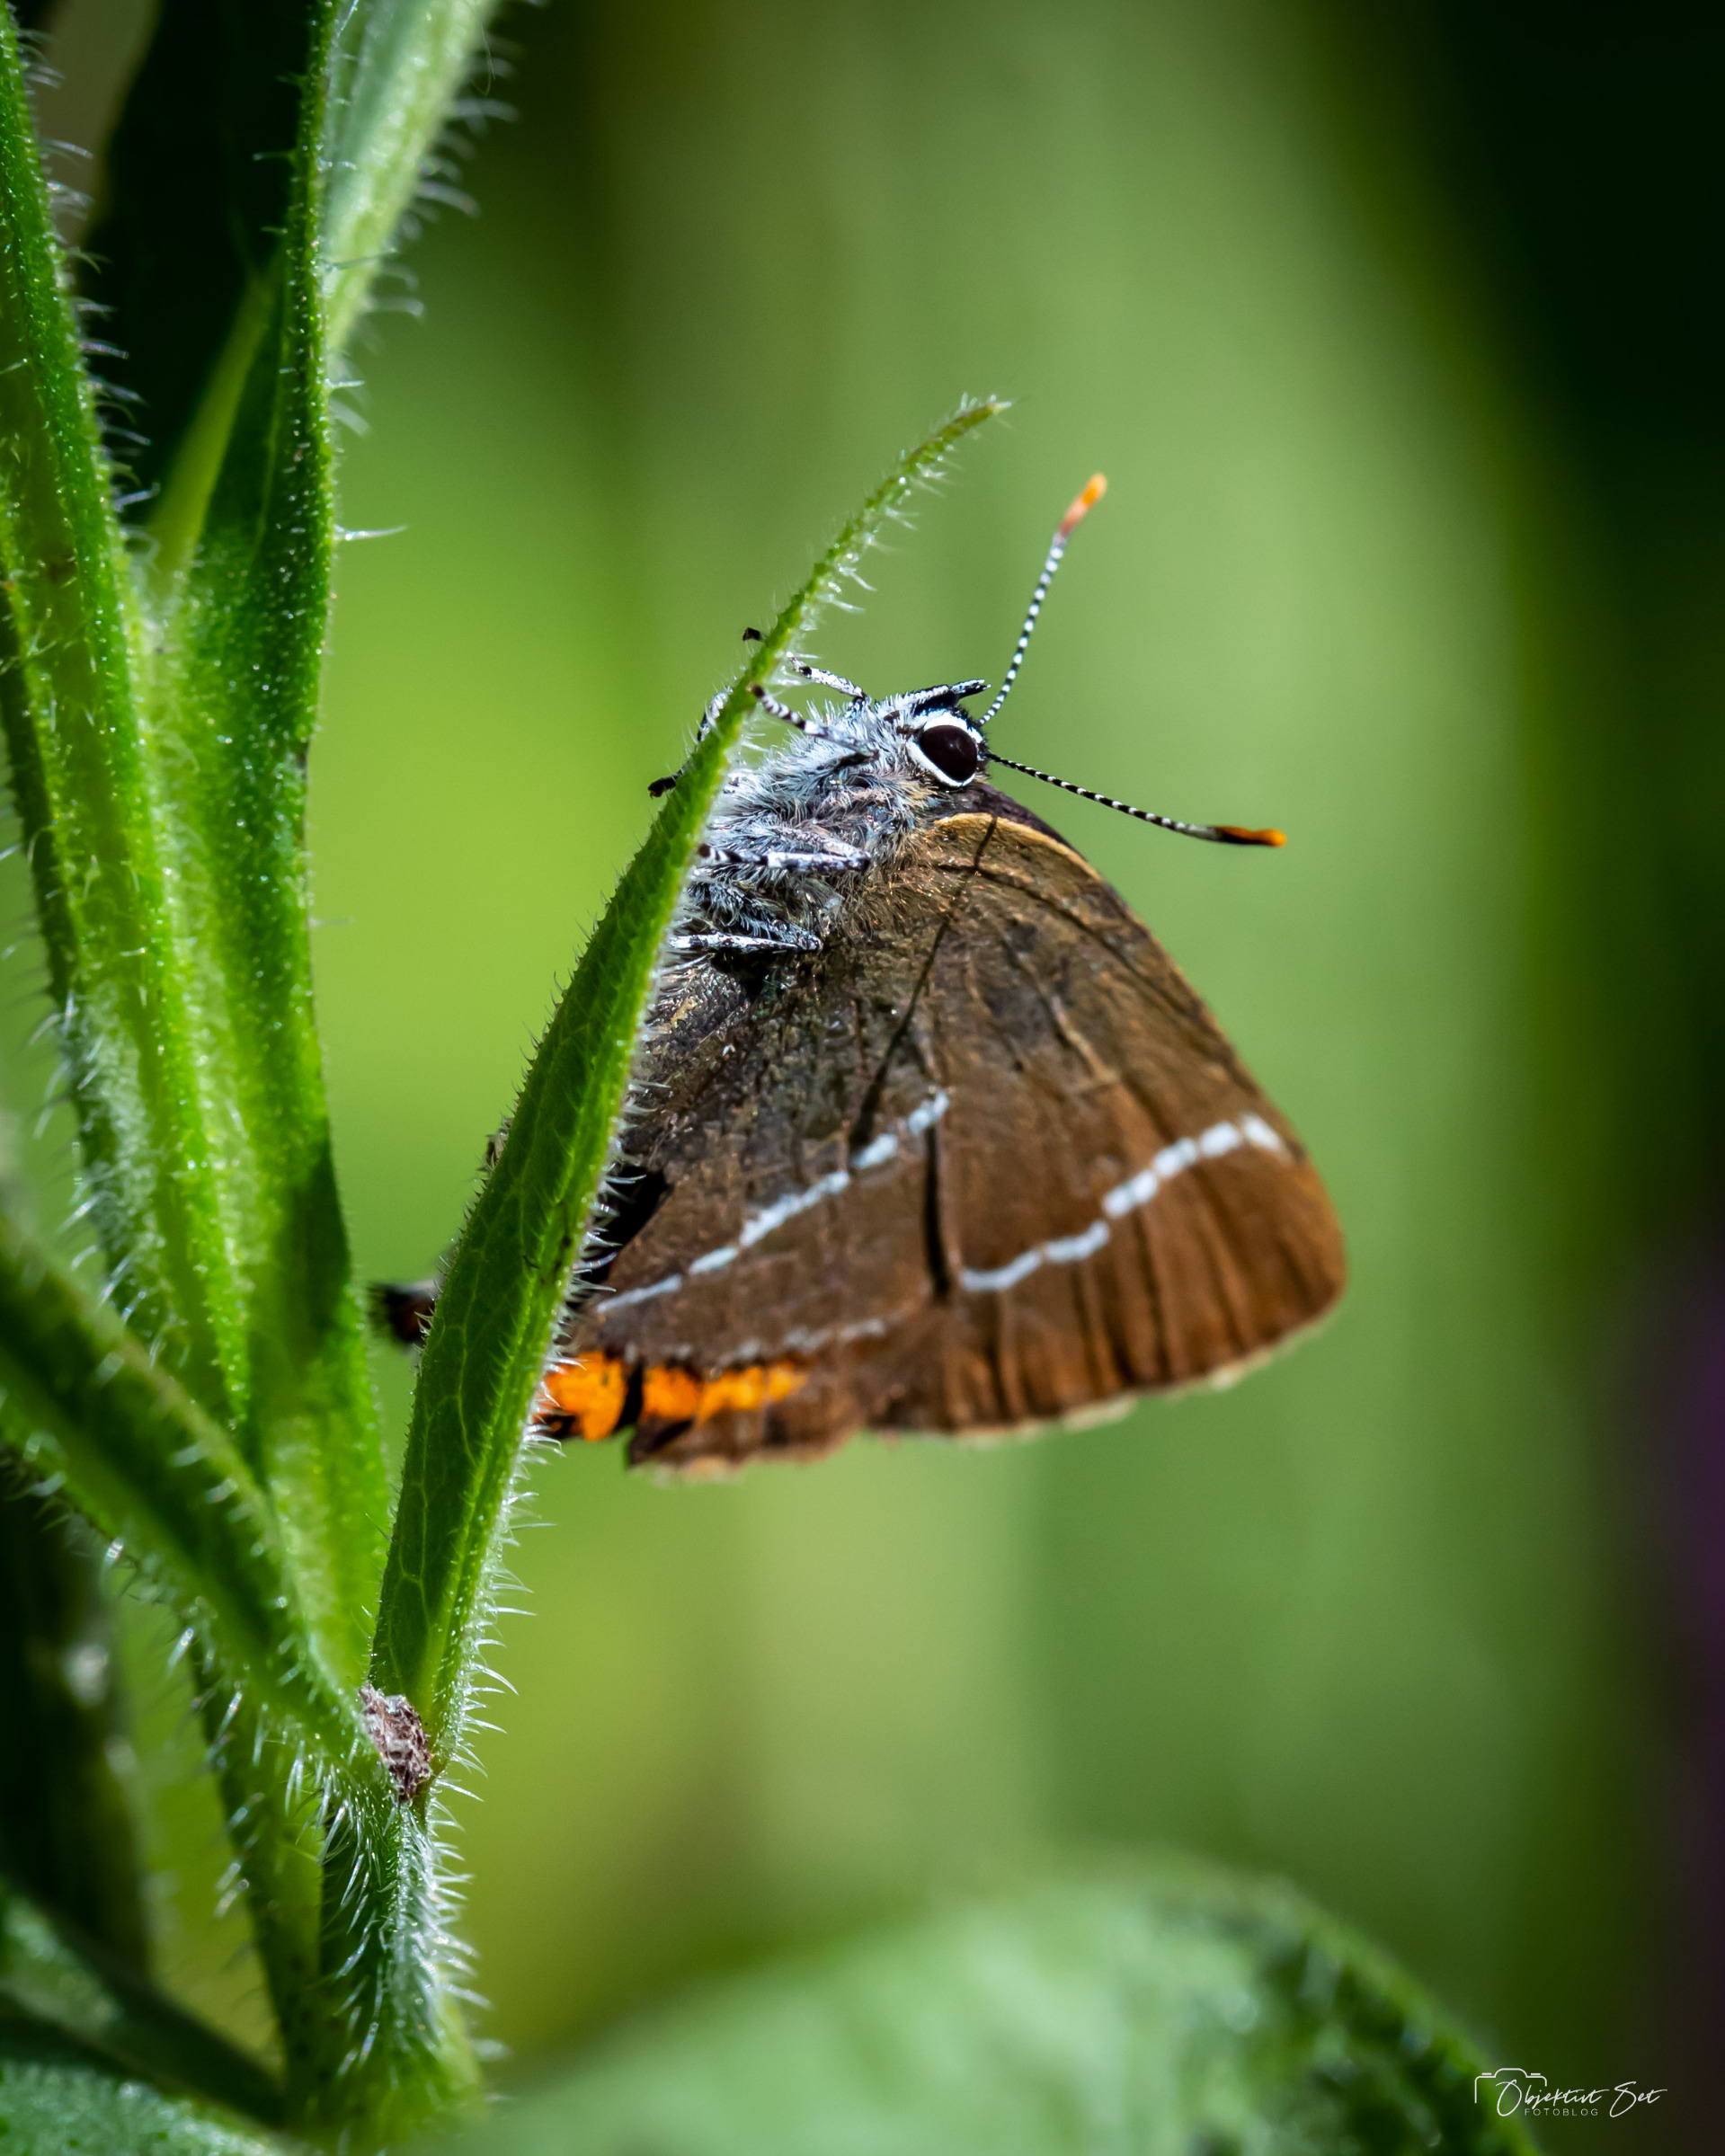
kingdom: Animalia
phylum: Arthropoda
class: Insecta
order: Lepidoptera
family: Lycaenidae
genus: Satyrium
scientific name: Satyrium w-album
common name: Det hvide W
